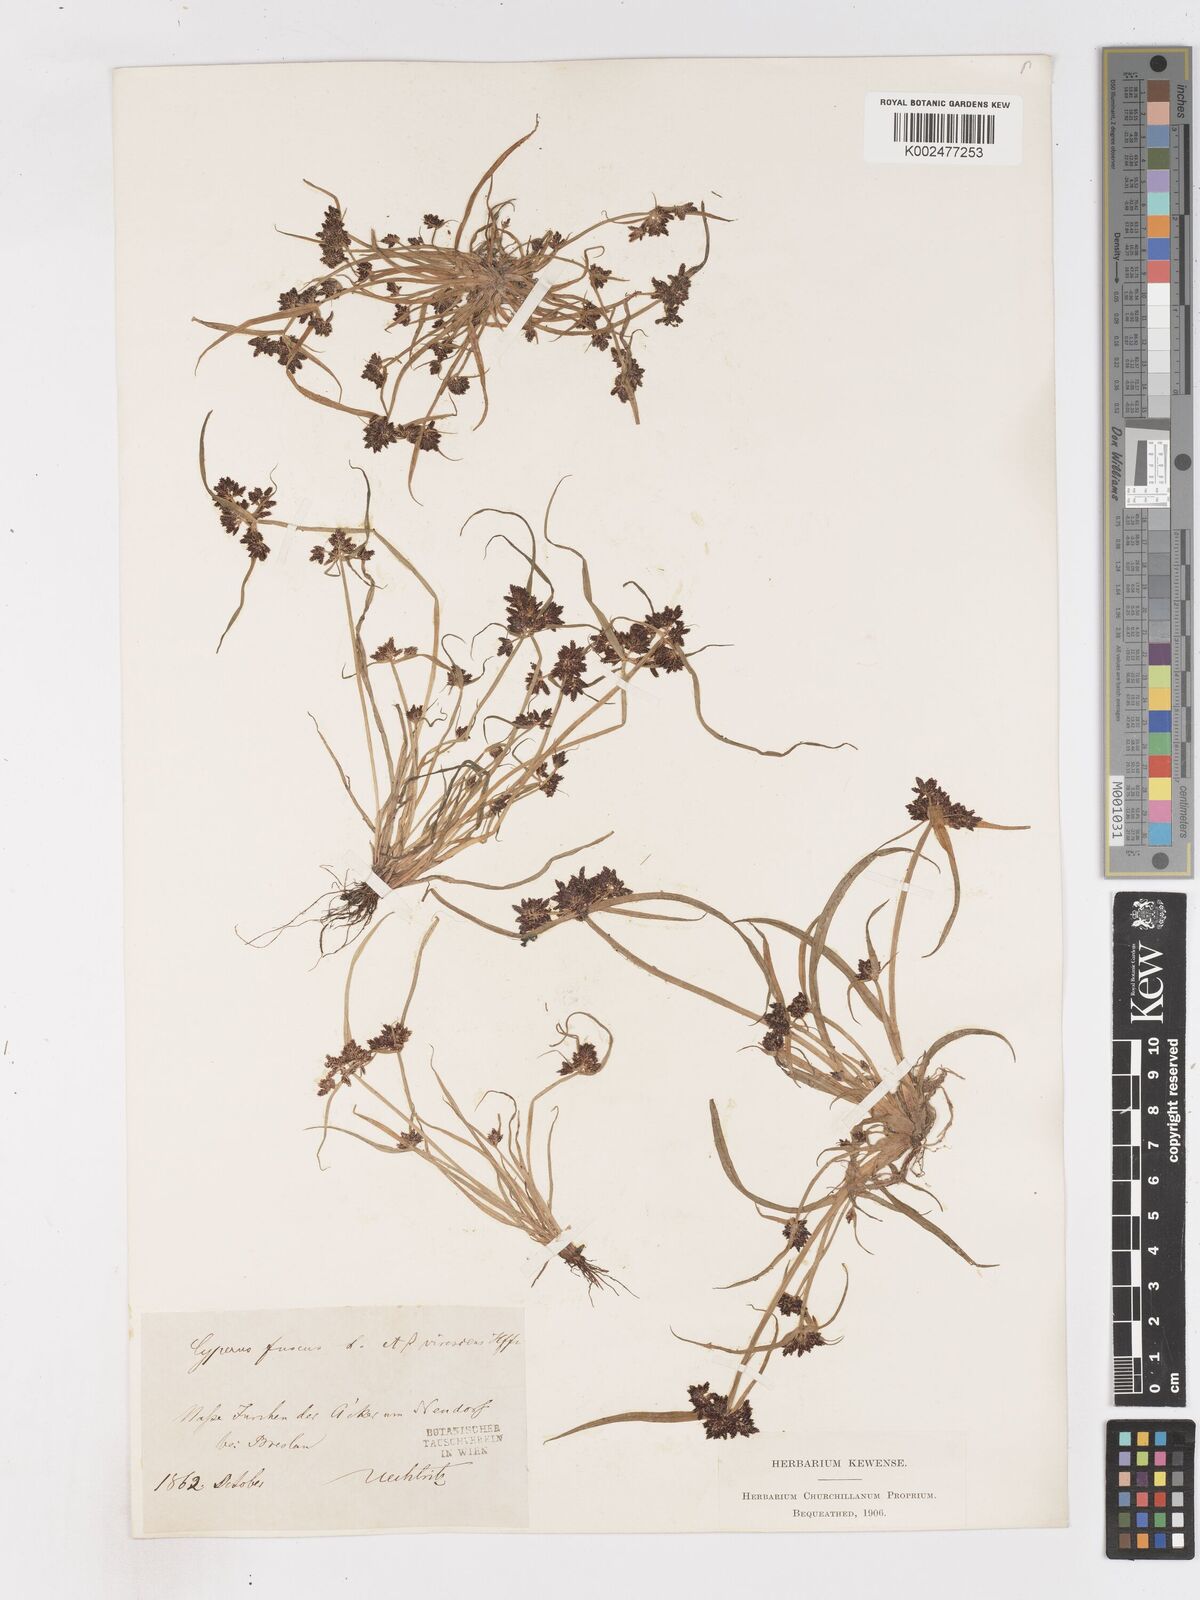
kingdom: Plantae
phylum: Tracheophyta
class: Liliopsida
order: Poales
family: Cyperaceae
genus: Cyperus
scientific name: Cyperus fuscus
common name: Brown galingale
